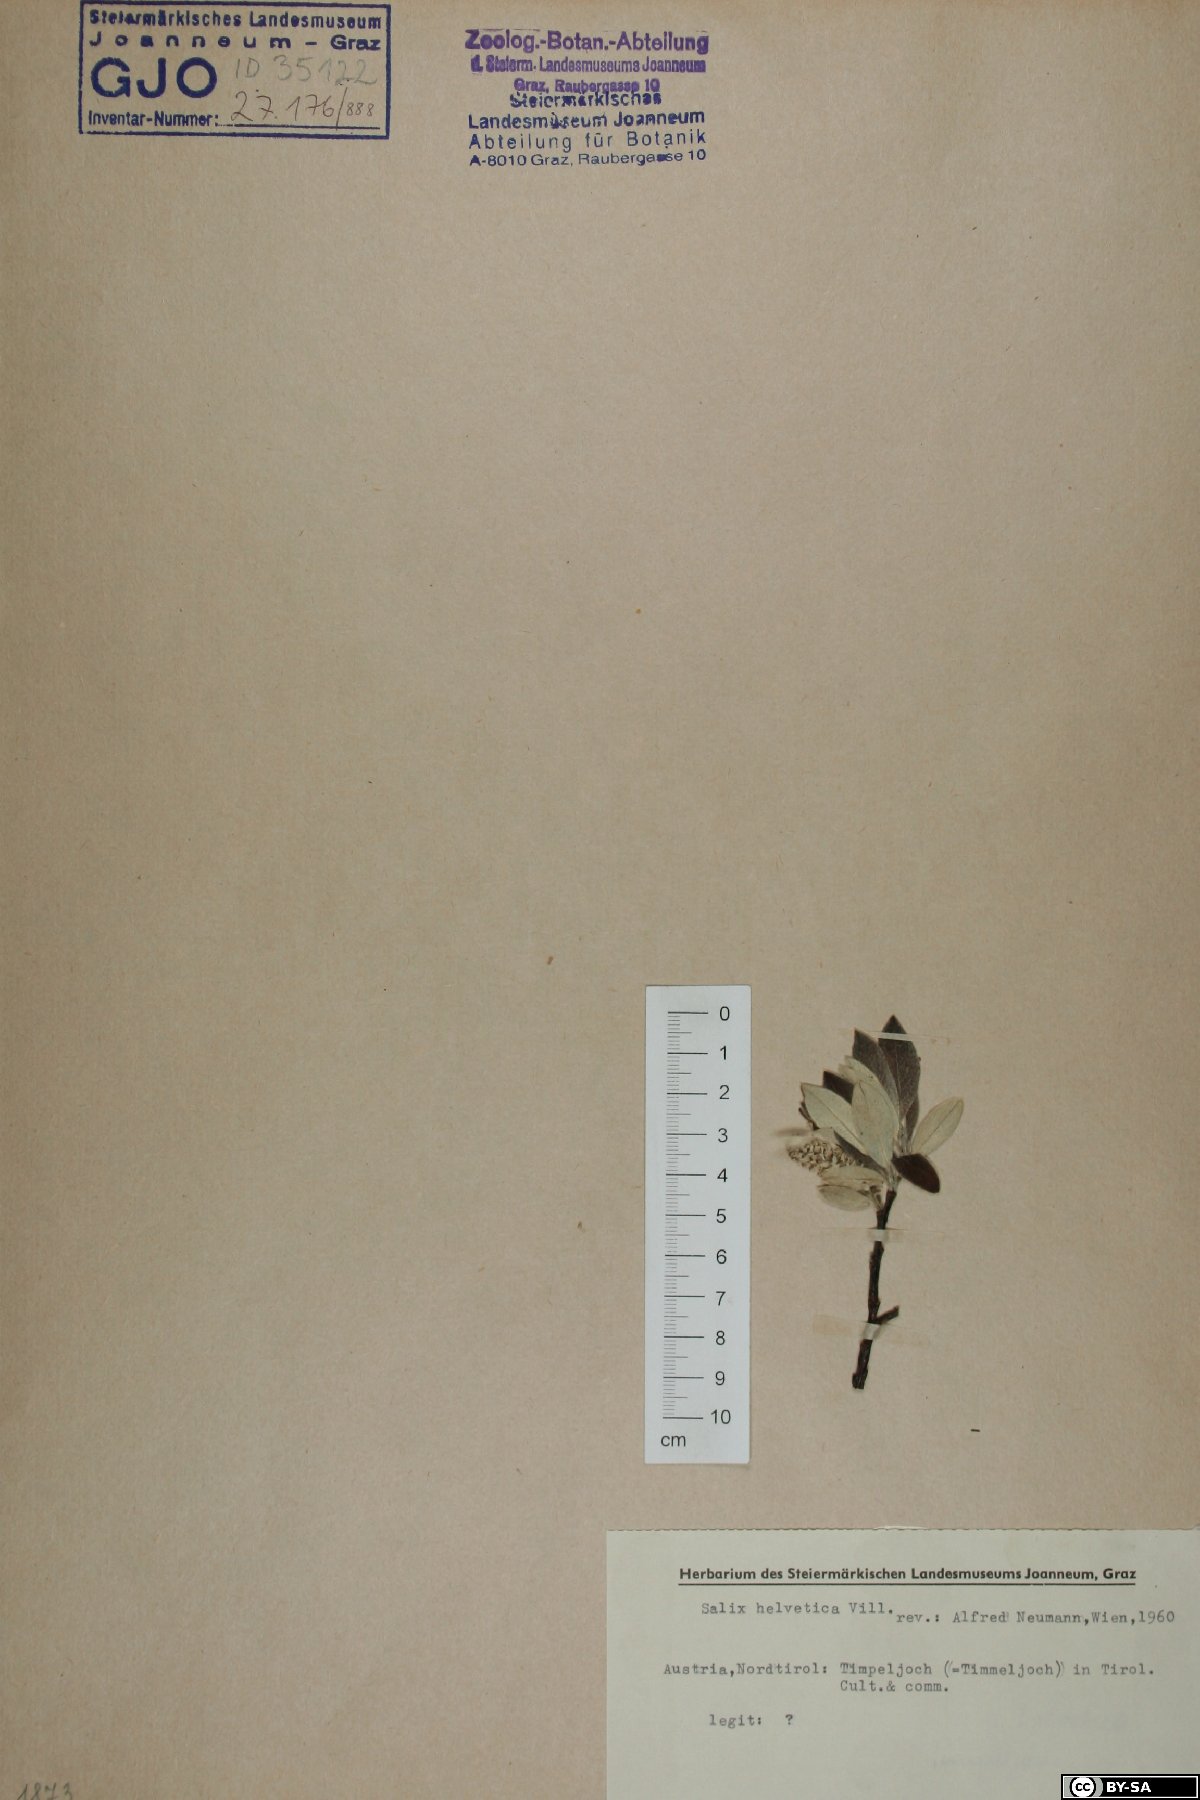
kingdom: Plantae
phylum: Tracheophyta
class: Magnoliopsida
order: Malpighiales
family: Salicaceae
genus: Salix
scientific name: Salix helvetica
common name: Swiss willow
